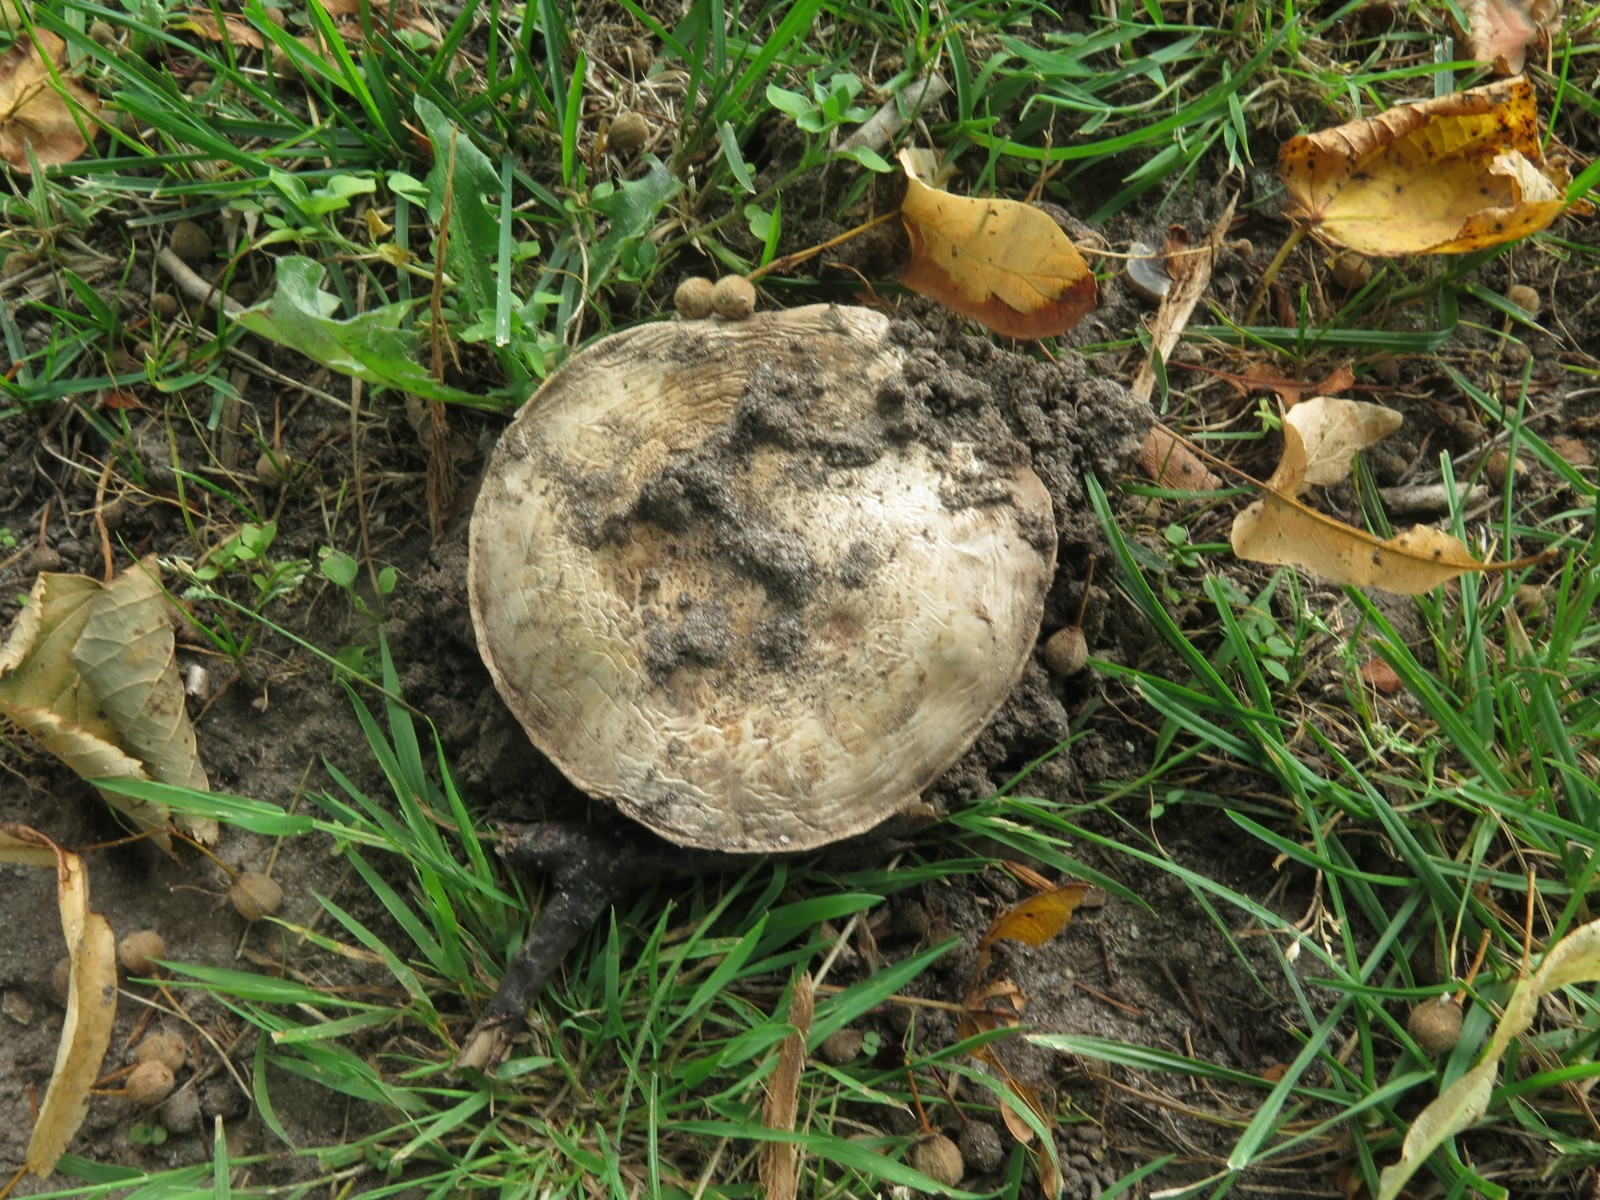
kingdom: Fungi
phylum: Basidiomycota
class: Agaricomycetes
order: Agaricales
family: Agaricaceae
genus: Agaricus
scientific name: Agaricus bitorquis
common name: vej-champignon
